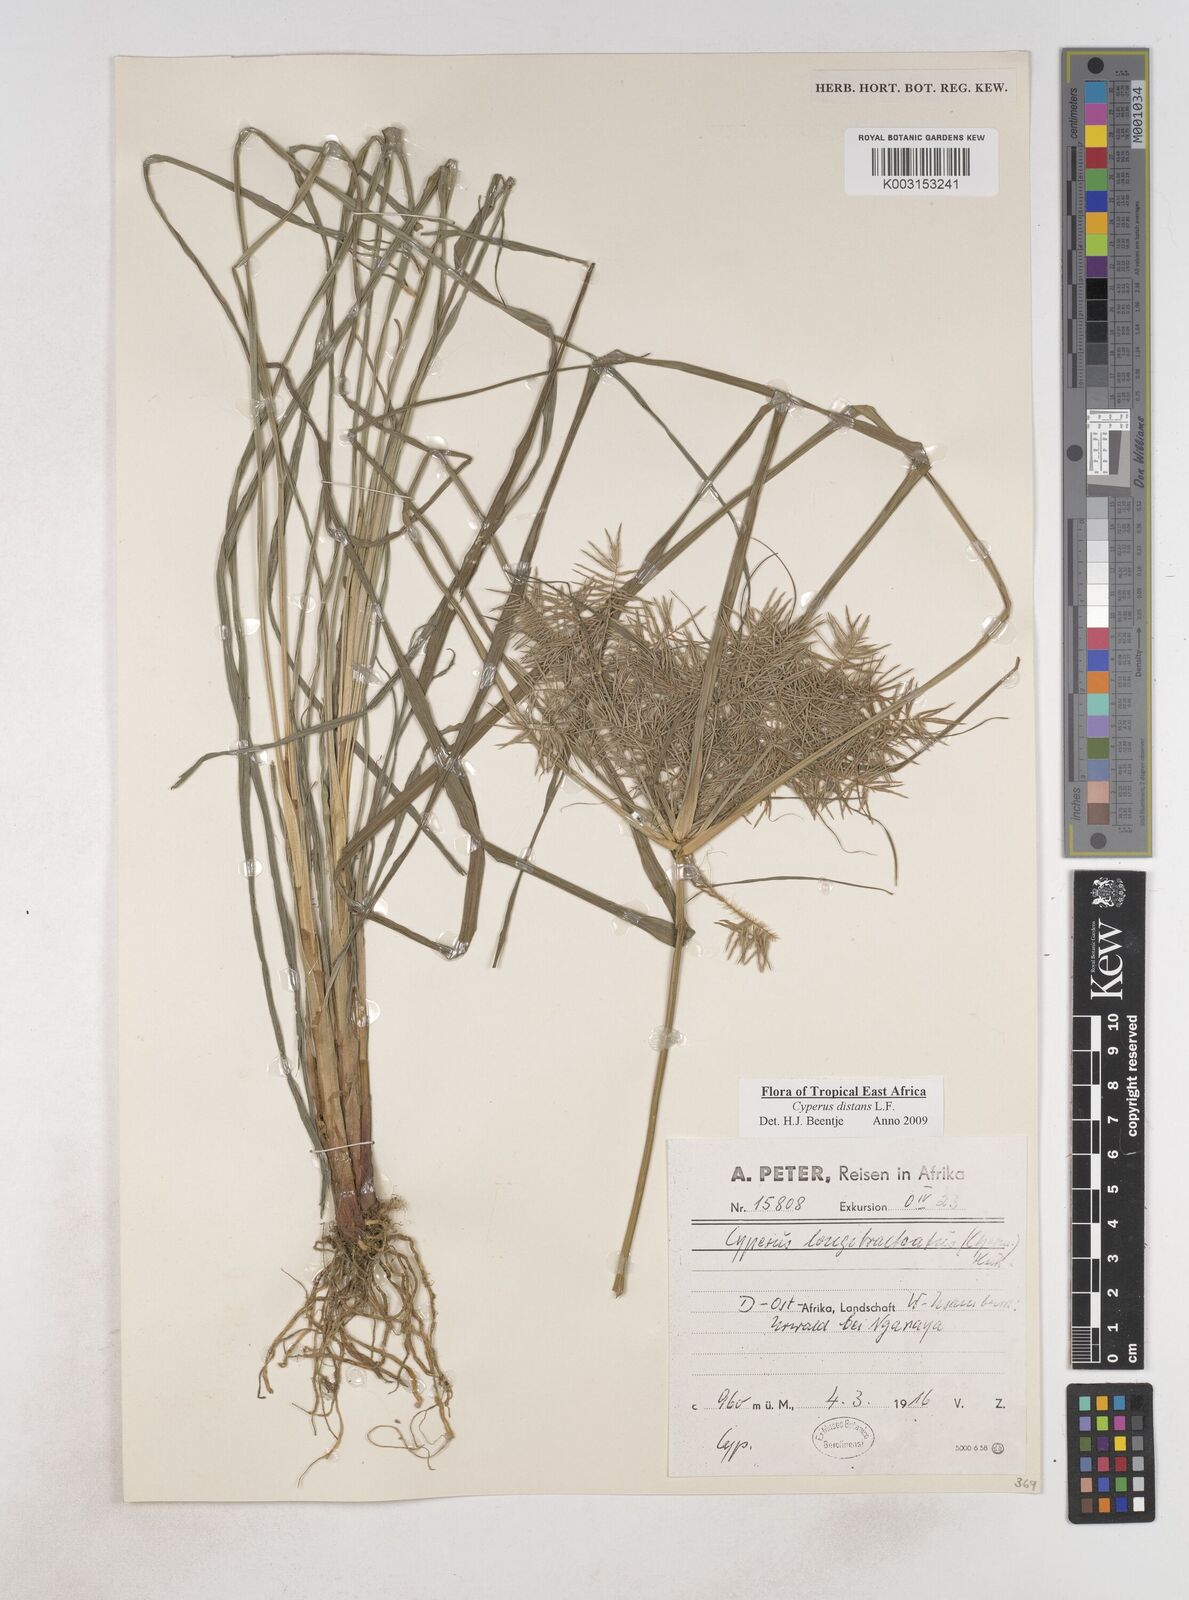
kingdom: Plantae
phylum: Tracheophyta
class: Liliopsida
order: Poales
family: Cyperaceae
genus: Cyperus
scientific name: Cyperus distans
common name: Slender cyperus
